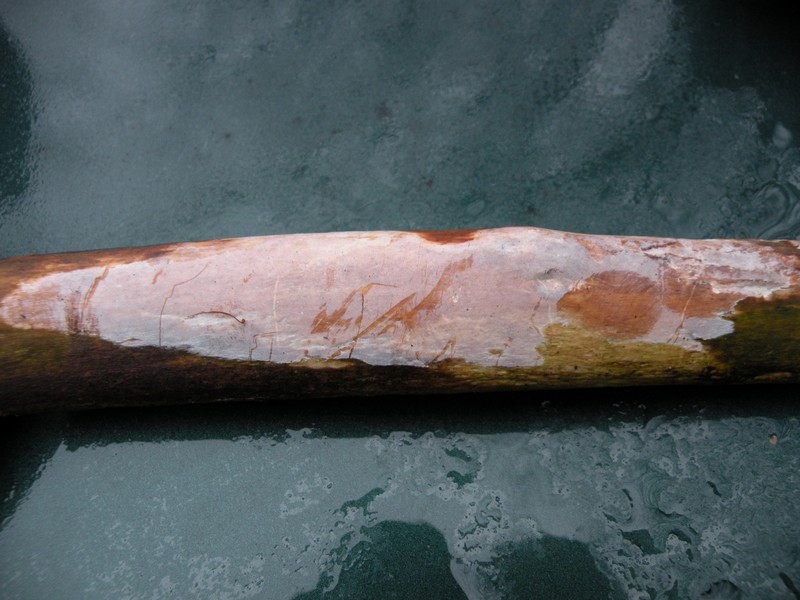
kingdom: Fungi
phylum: Basidiomycota
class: Tremellomycetes
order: Tremellales
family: Exidiaceae
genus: Exidiopsis
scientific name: Exidiopsis effusa
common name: smuk bævrehinde
